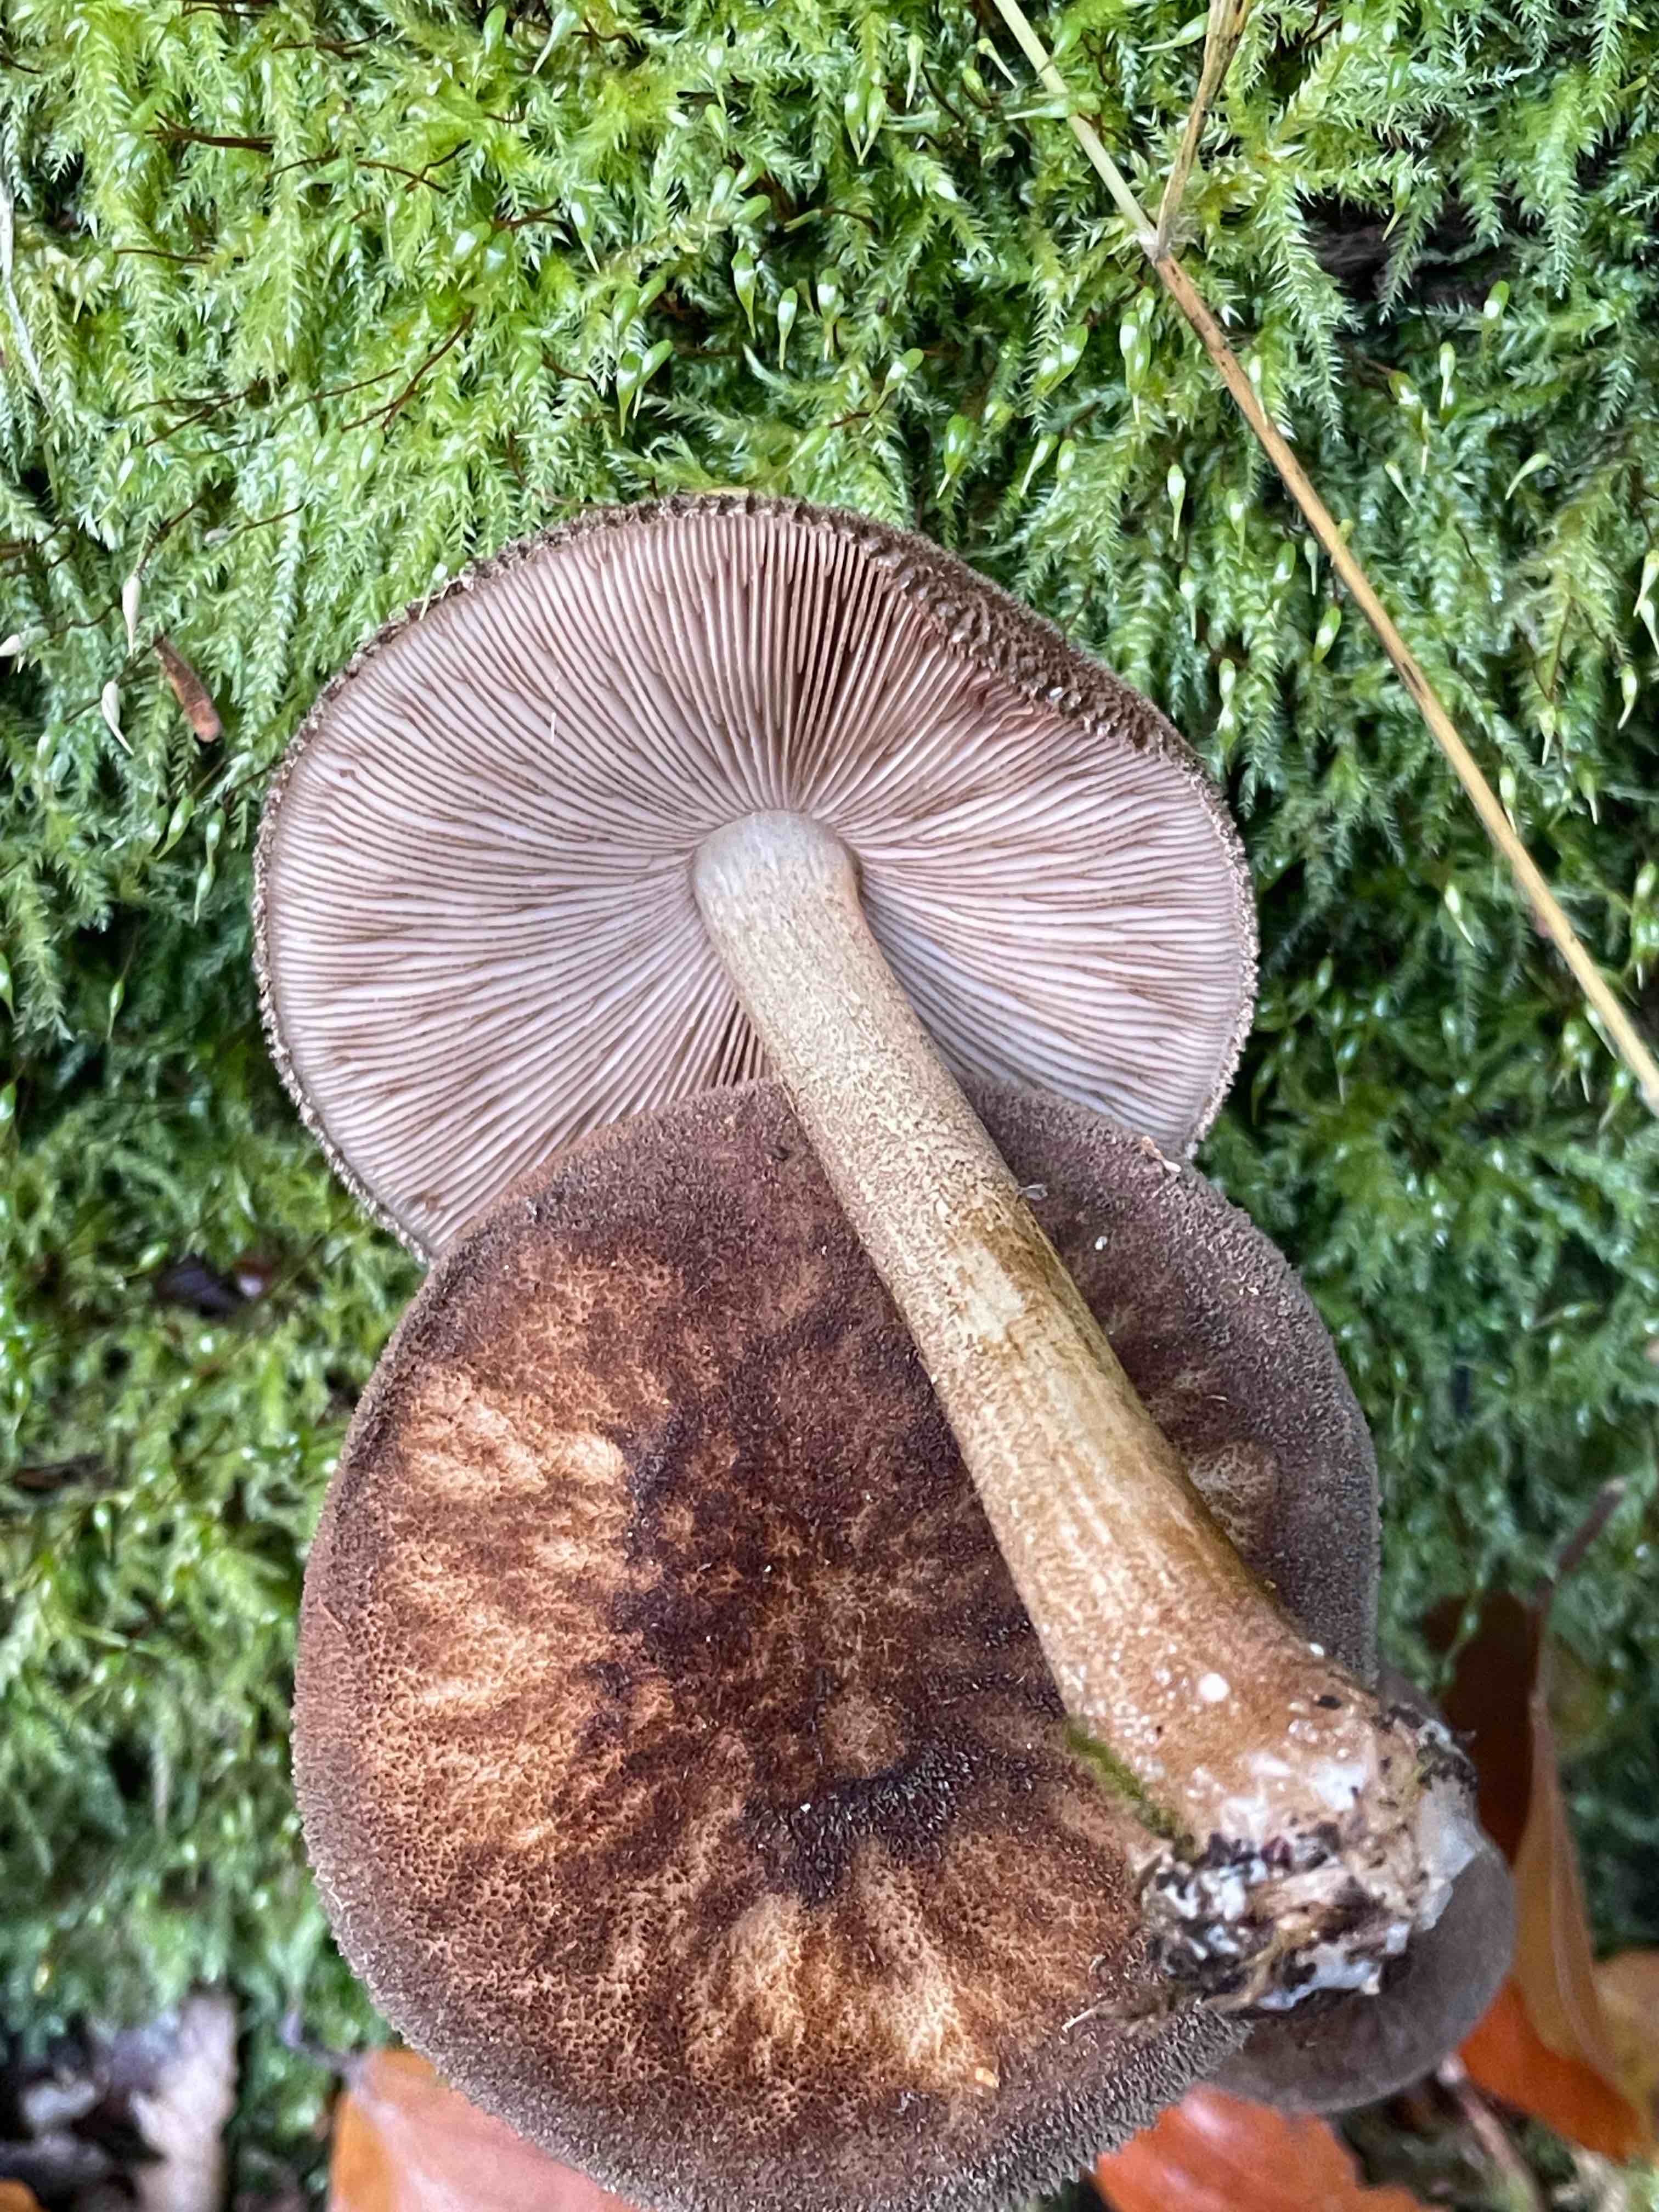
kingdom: Fungi
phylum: Basidiomycota
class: Agaricomycetes
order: Agaricales
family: Pluteaceae
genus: Pluteus
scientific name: Pluteus umbrosus
